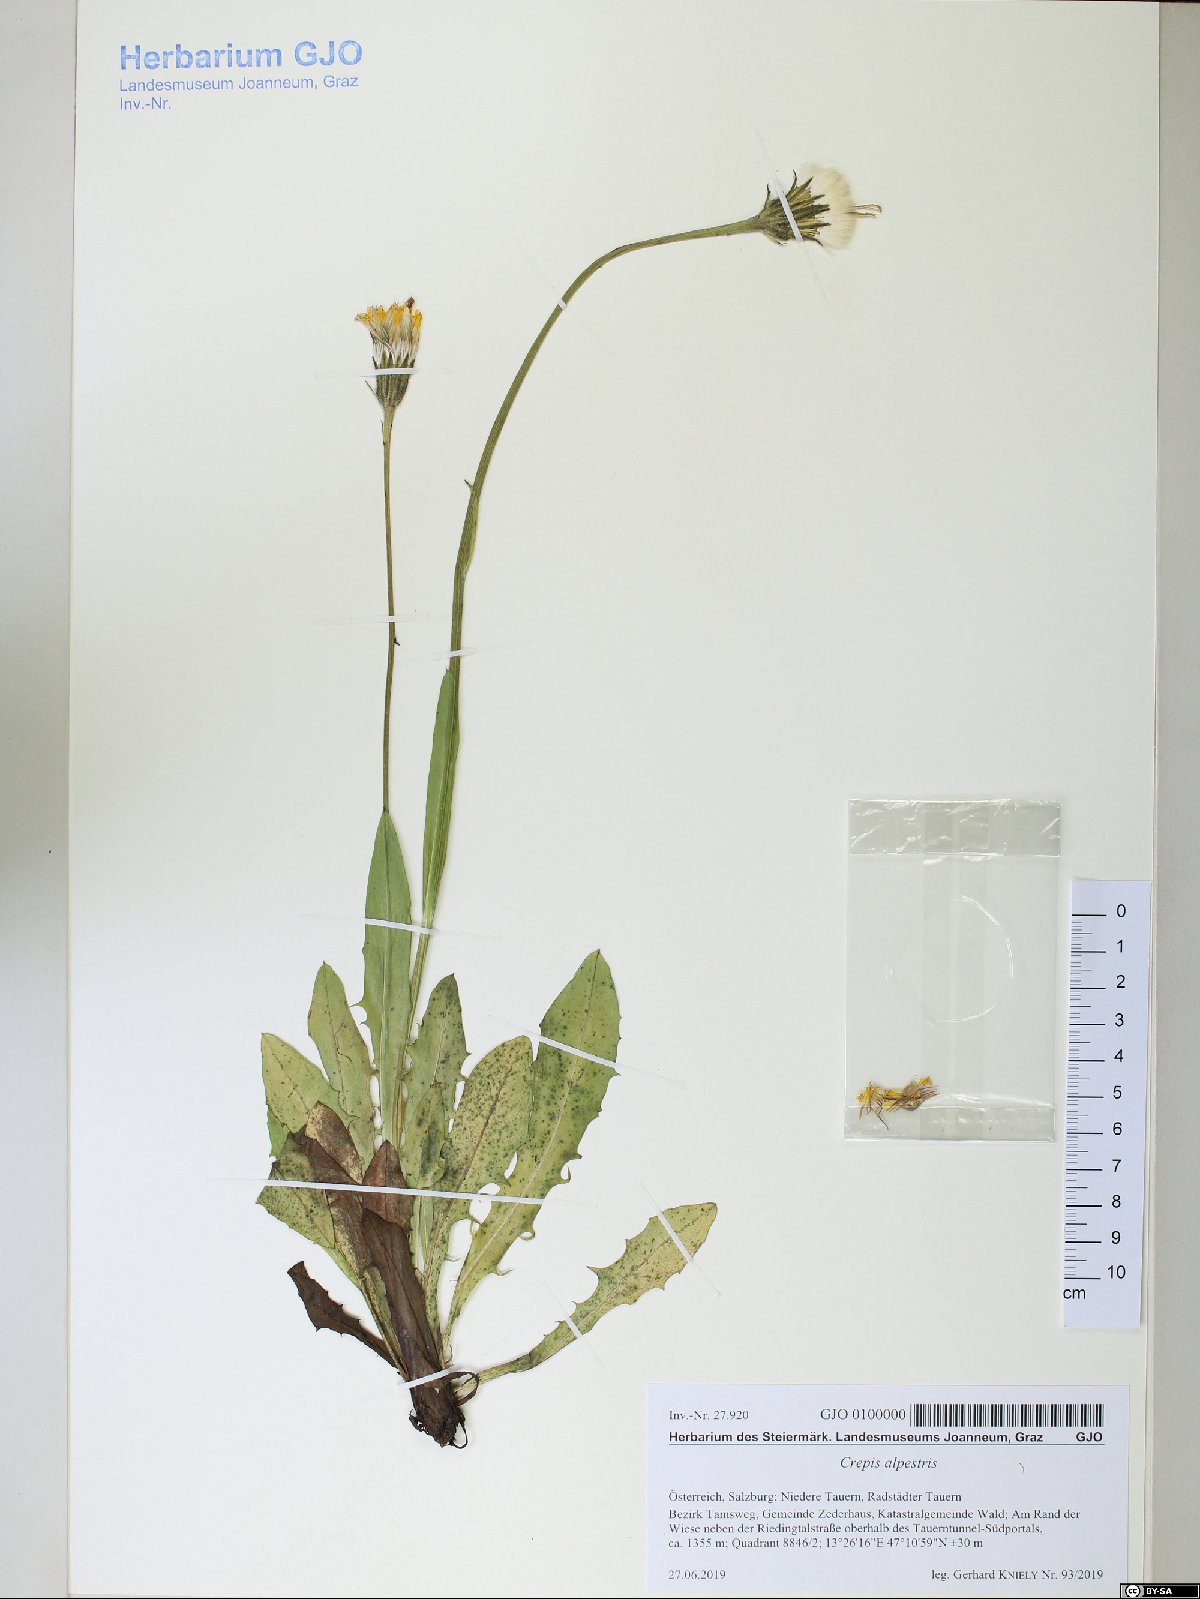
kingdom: Plantae
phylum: Tracheophyta
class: Magnoliopsida
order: Asterales
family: Asteraceae
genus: Crepis
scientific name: Crepis alpestris
